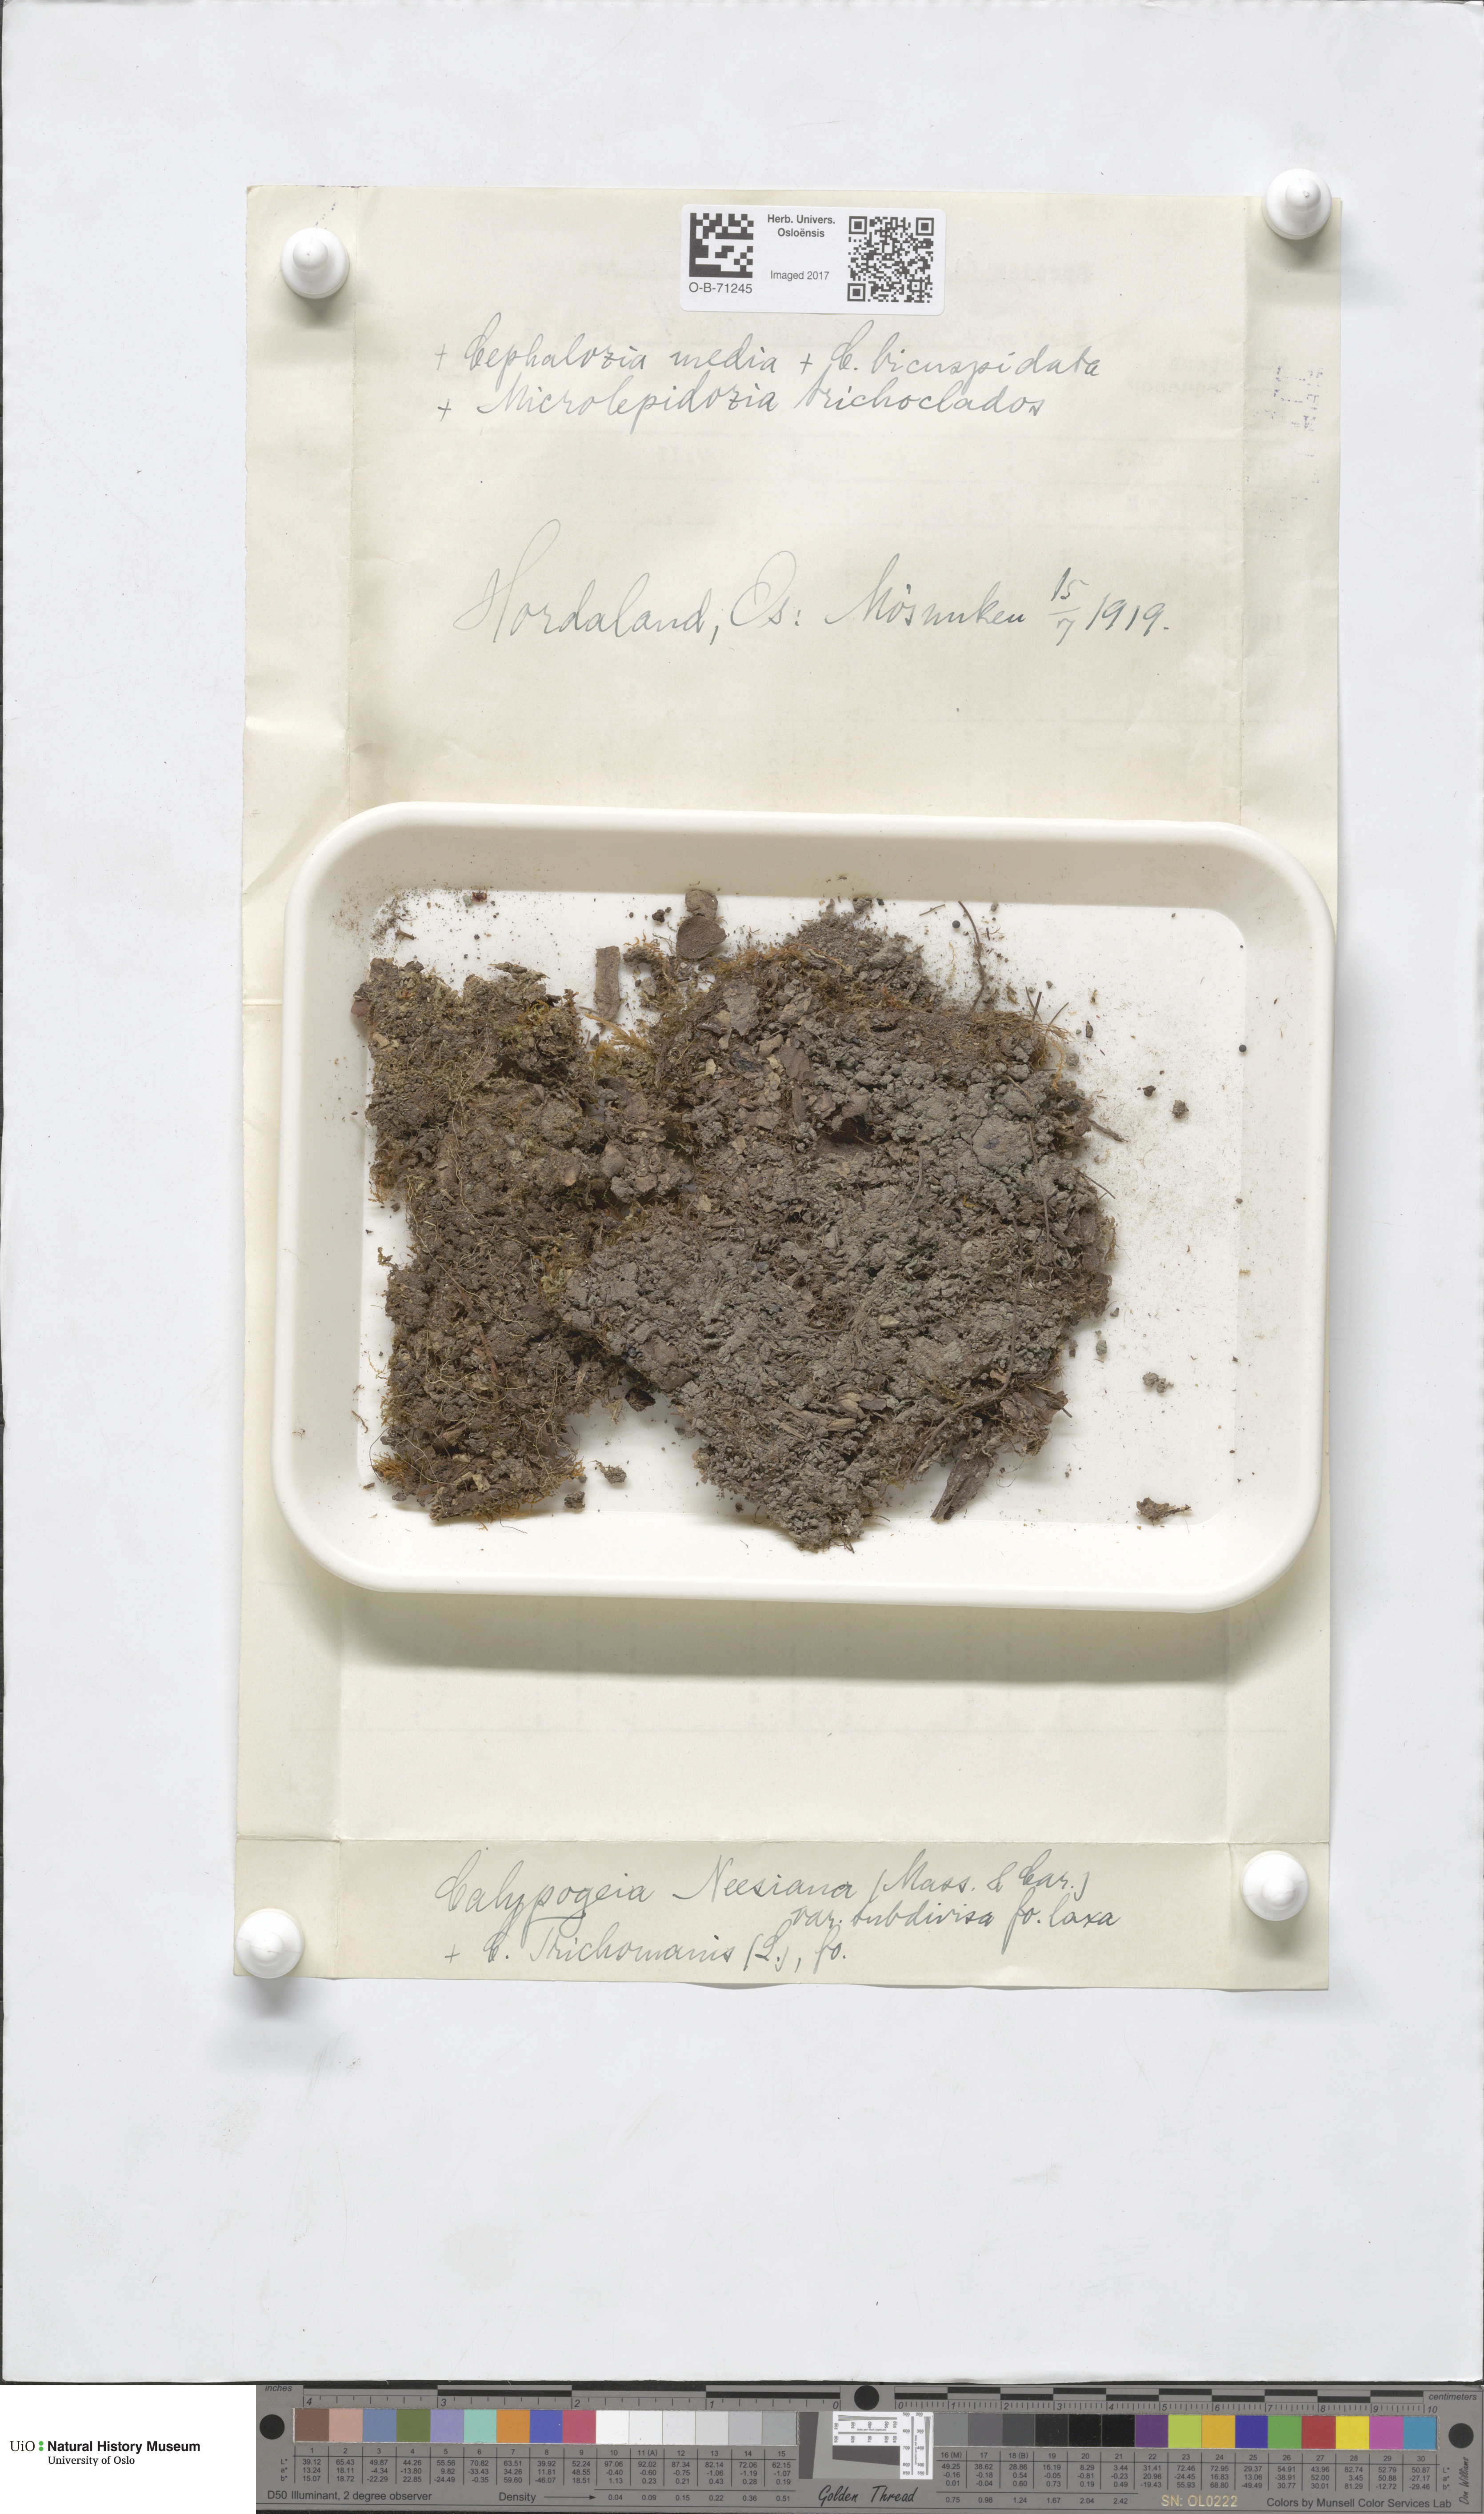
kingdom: Plantae
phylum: Marchantiophyta
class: Jungermanniopsida
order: Jungermanniales
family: Calypogeiaceae
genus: Calypogeia
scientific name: Calypogeia neesiana
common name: Nees  pouchwort
